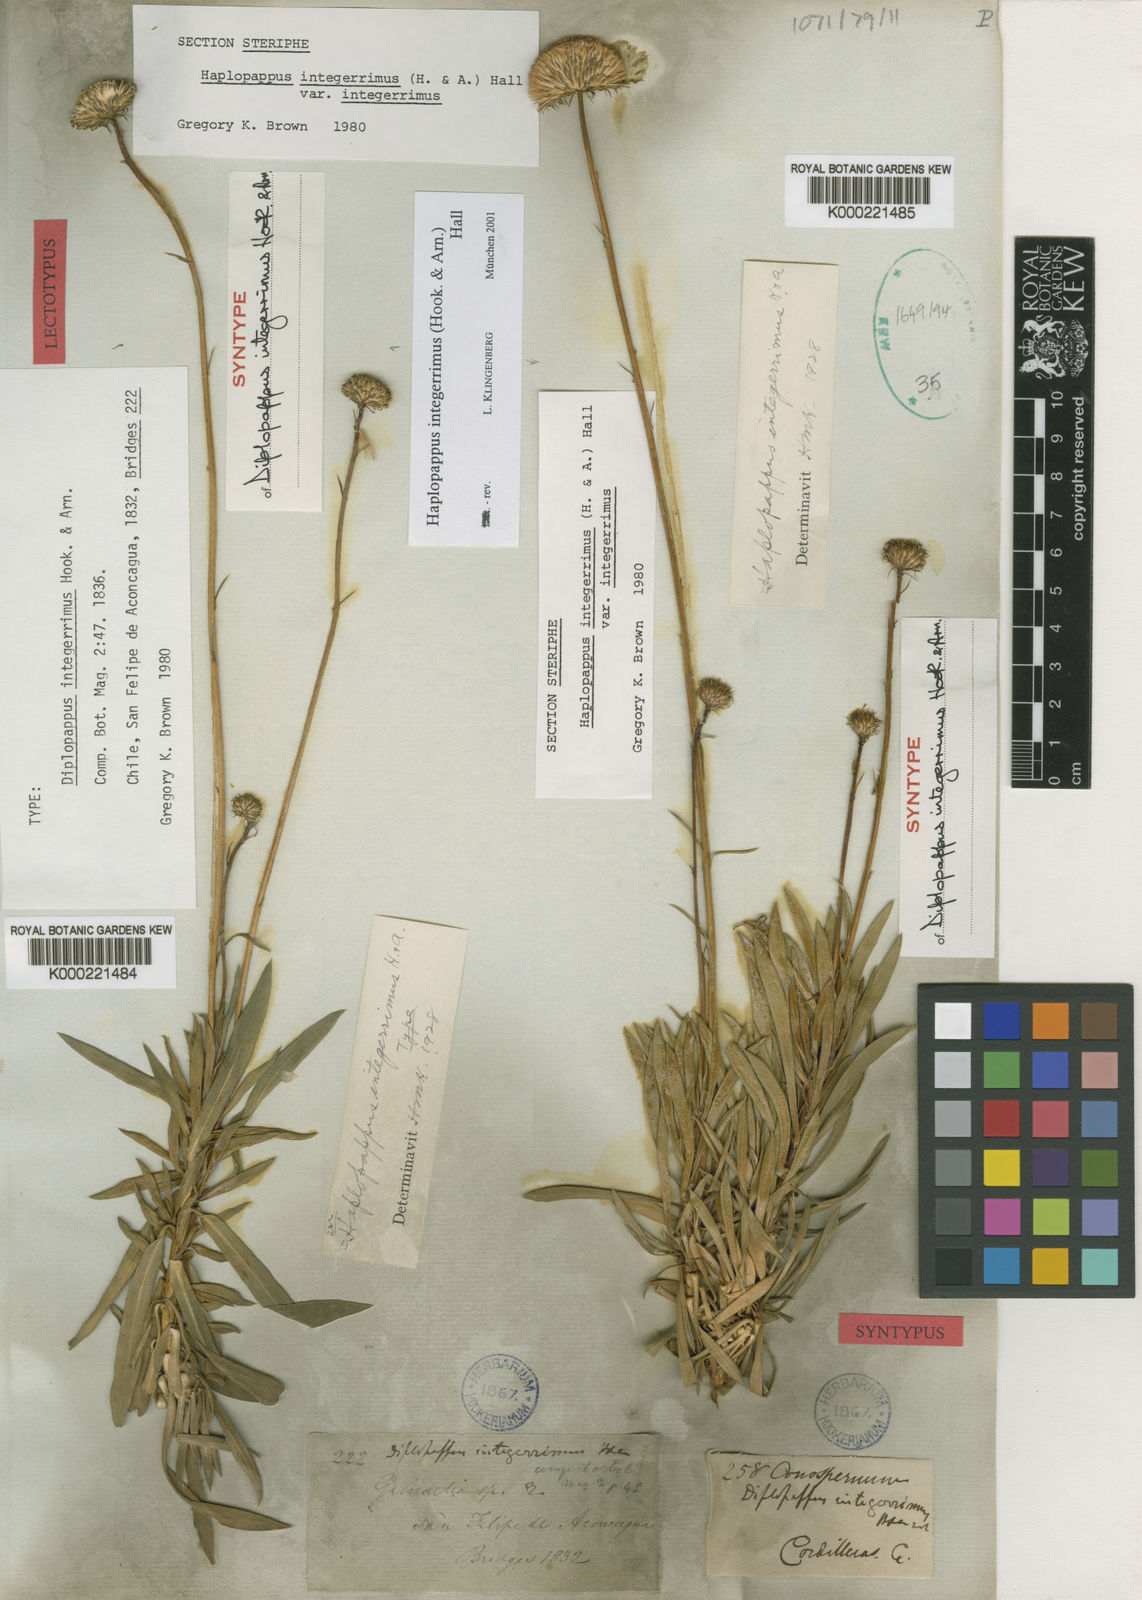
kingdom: Plantae
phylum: Tracheophyta
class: Magnoliopsida
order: Asterales
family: Asteraceae
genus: Haplopappus
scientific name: Haplopappus integerrimus
